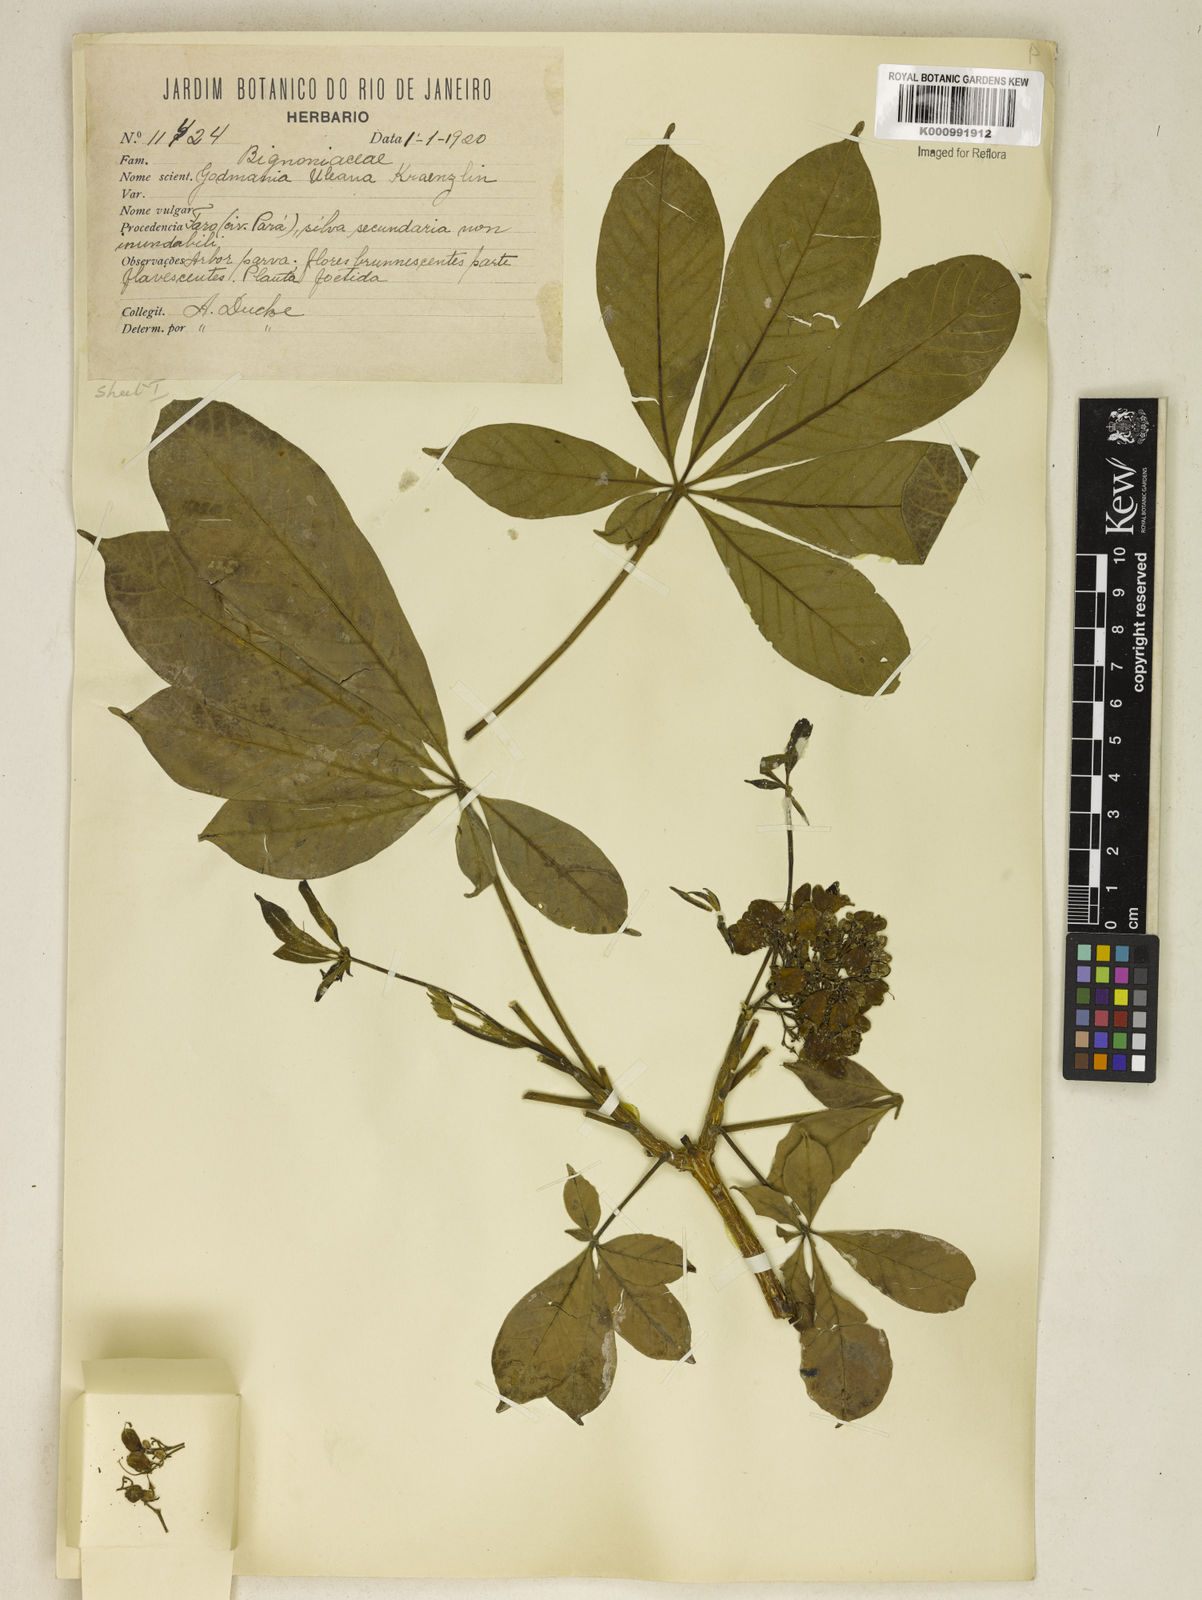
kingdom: Plantae
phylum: Tracheophyta
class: Magnoliopsida
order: Lamiales
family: Bignoniaceae
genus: Godmania
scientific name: Godmania aesculifolia
